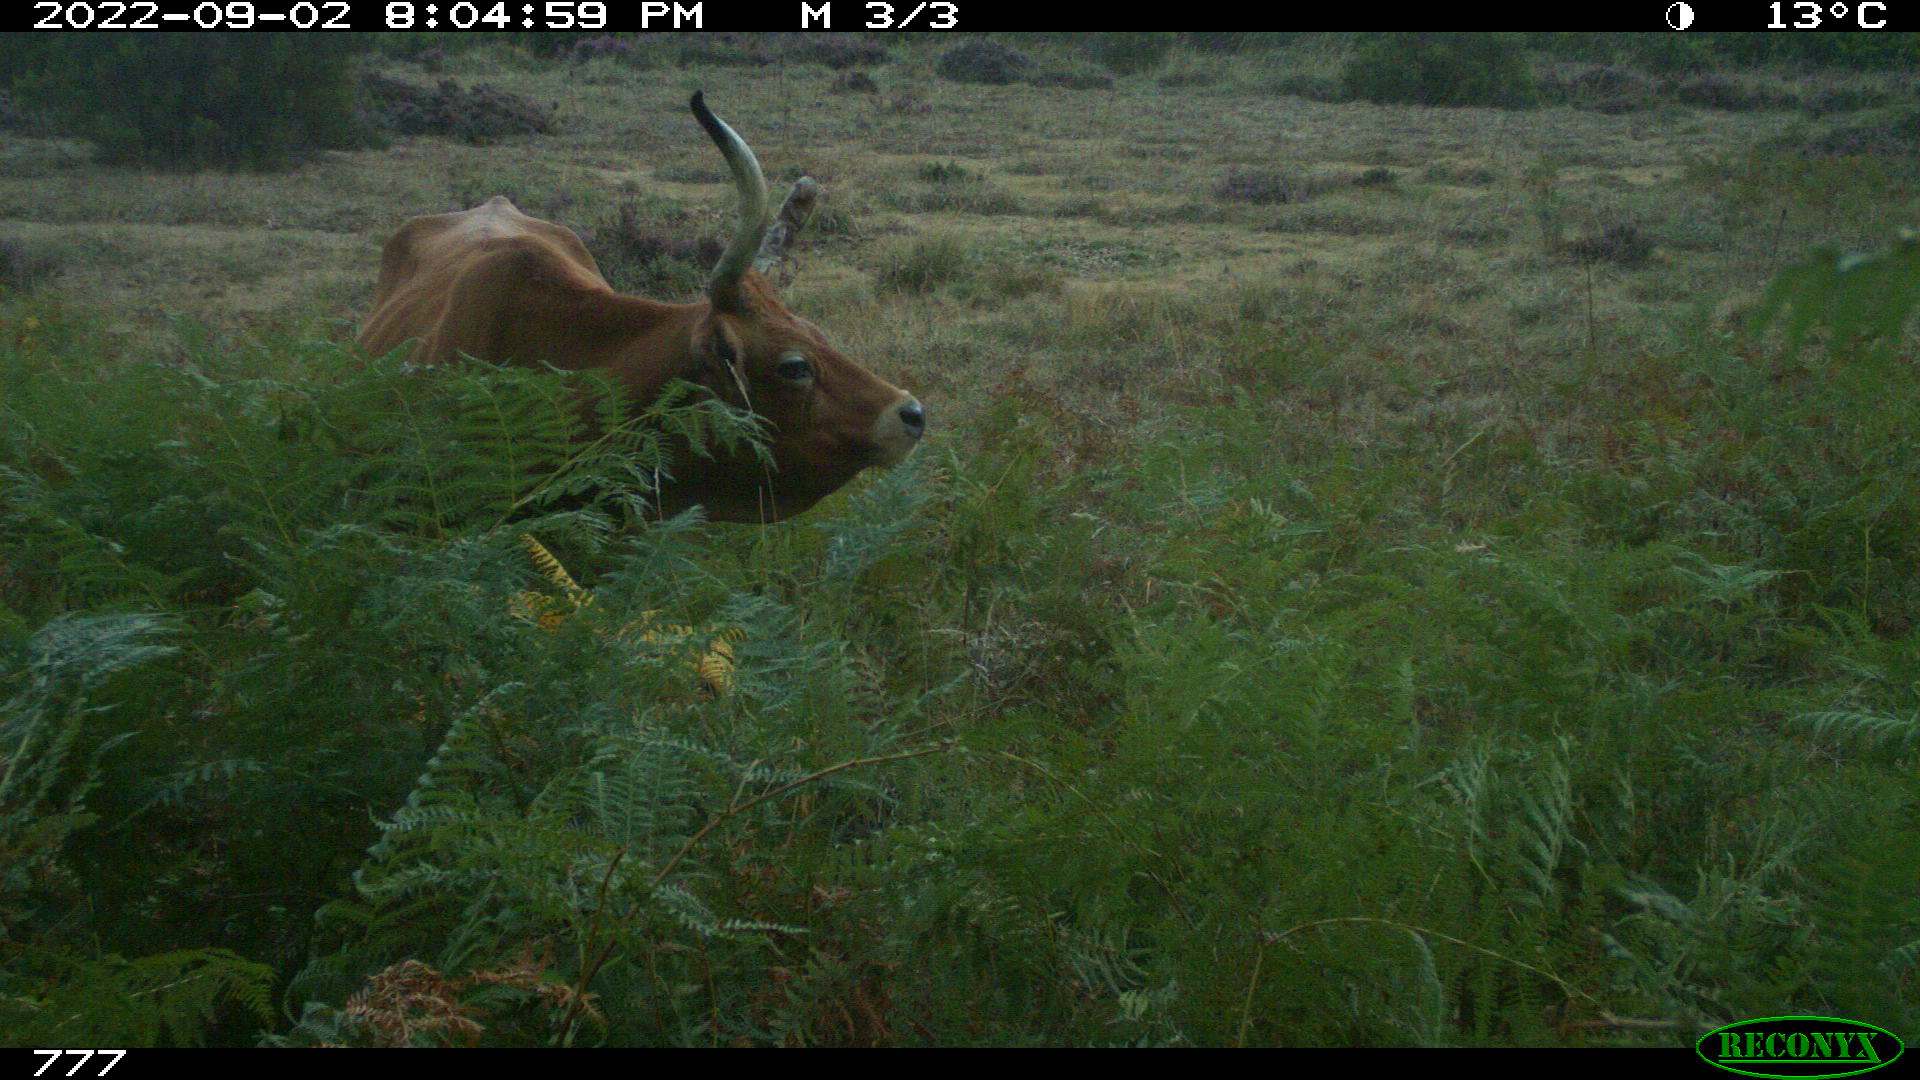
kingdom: Animalia
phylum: Chordata
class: Mammalia
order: Artiodactyla
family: Bovidae
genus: Bos
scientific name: Bos taurus
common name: Domesticated cattle
